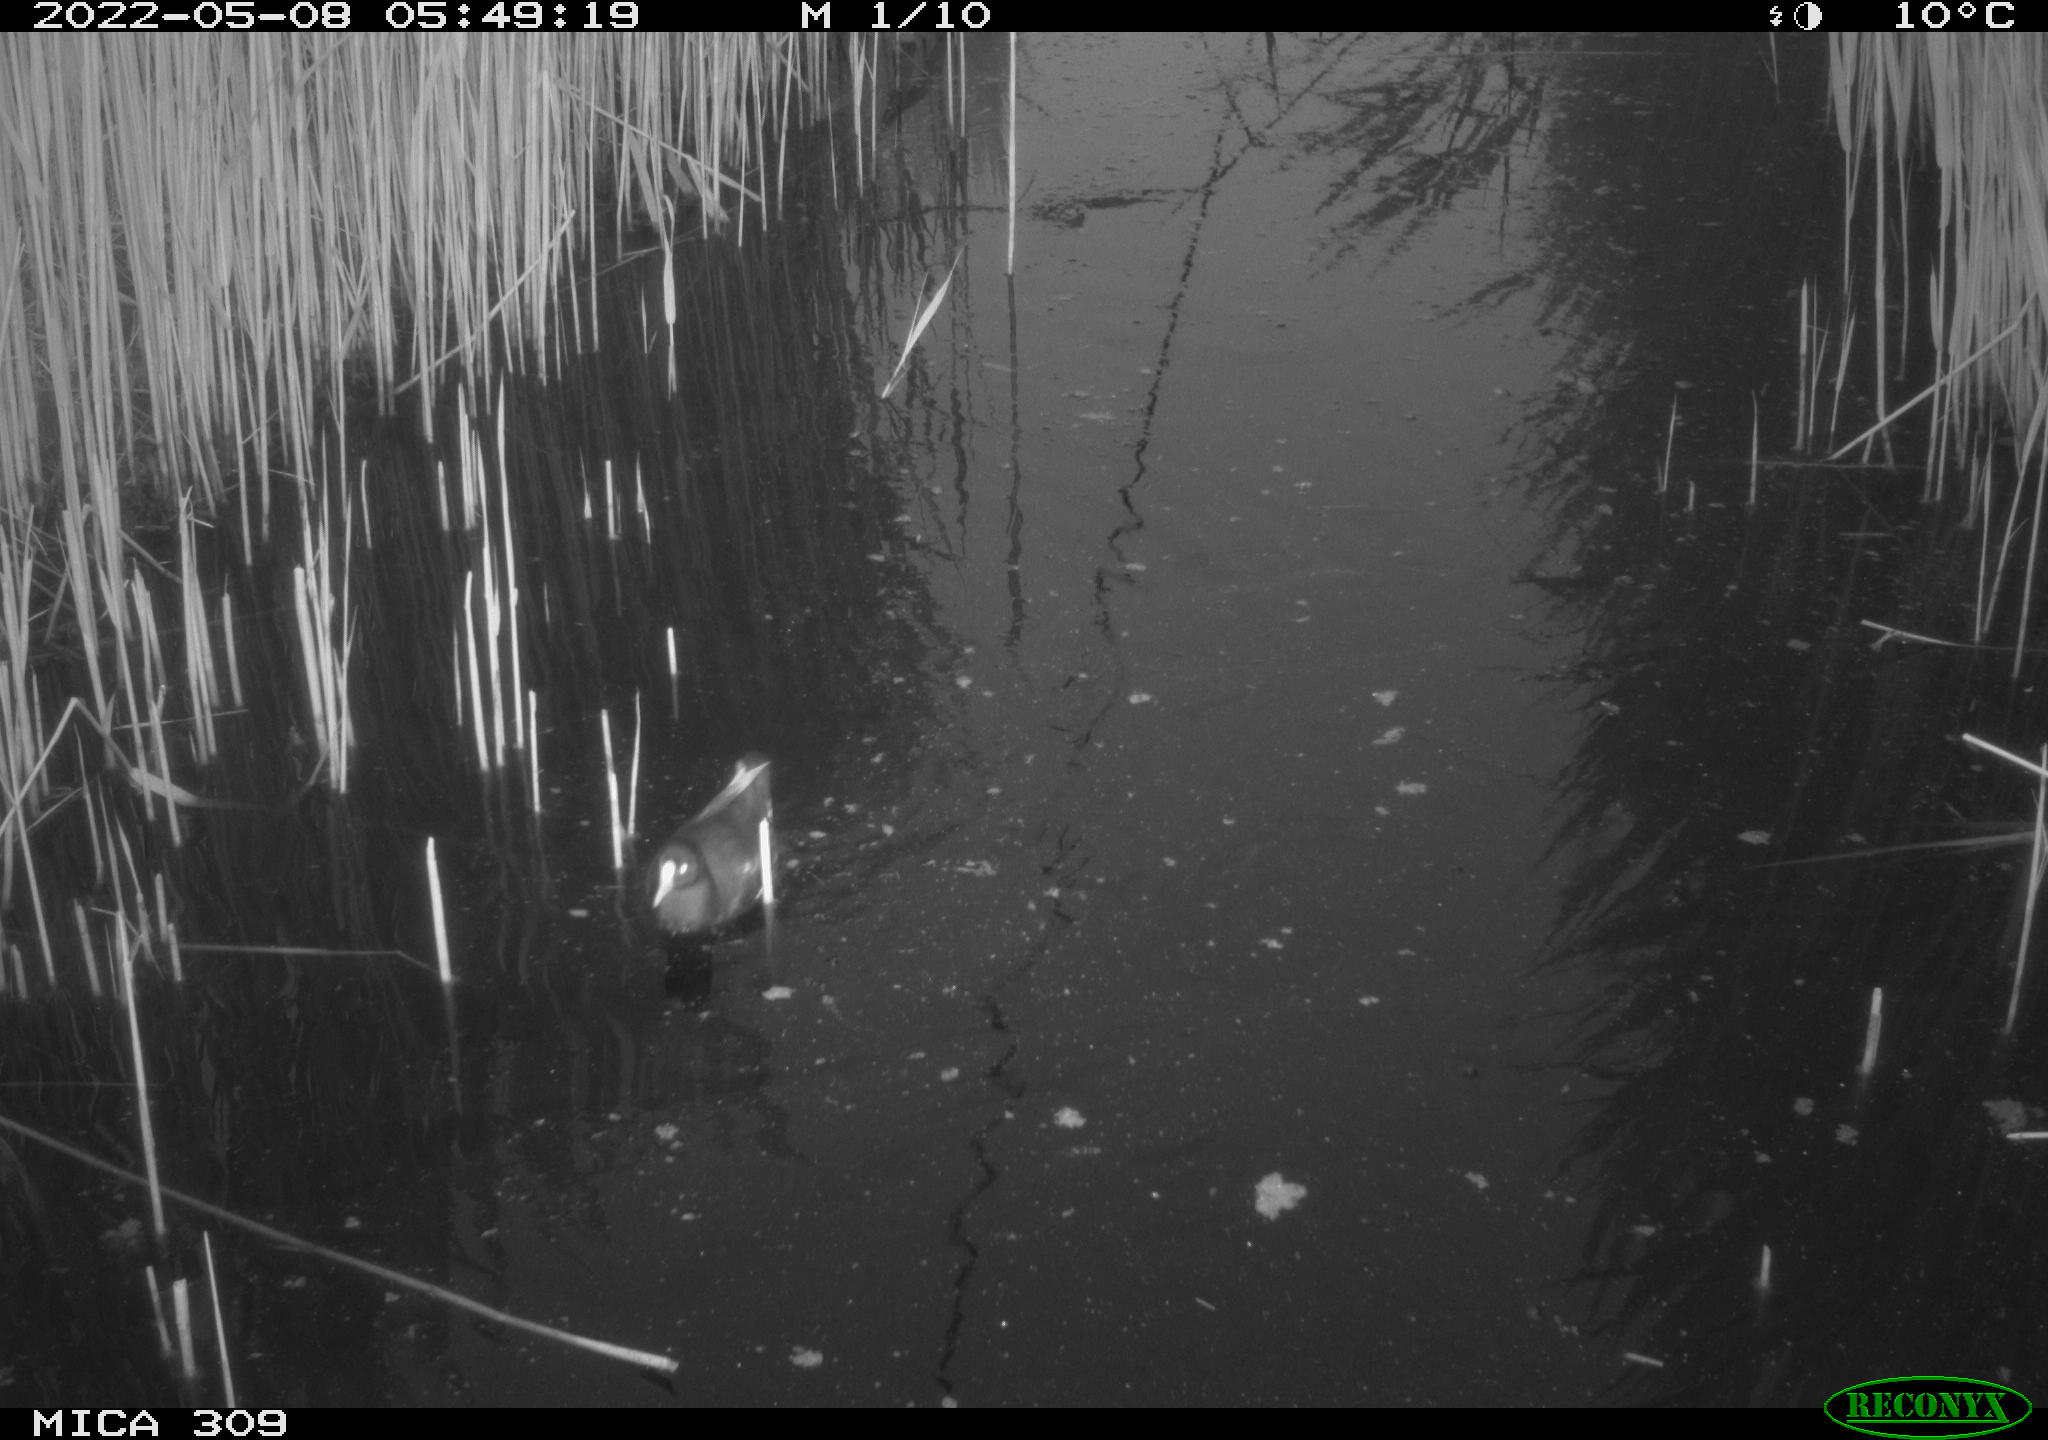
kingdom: Animalia
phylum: Chordata
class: Aves
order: Gruiformes
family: Rallidae
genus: Gallinula
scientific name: Gallinula chloropus
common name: Common moorhen
